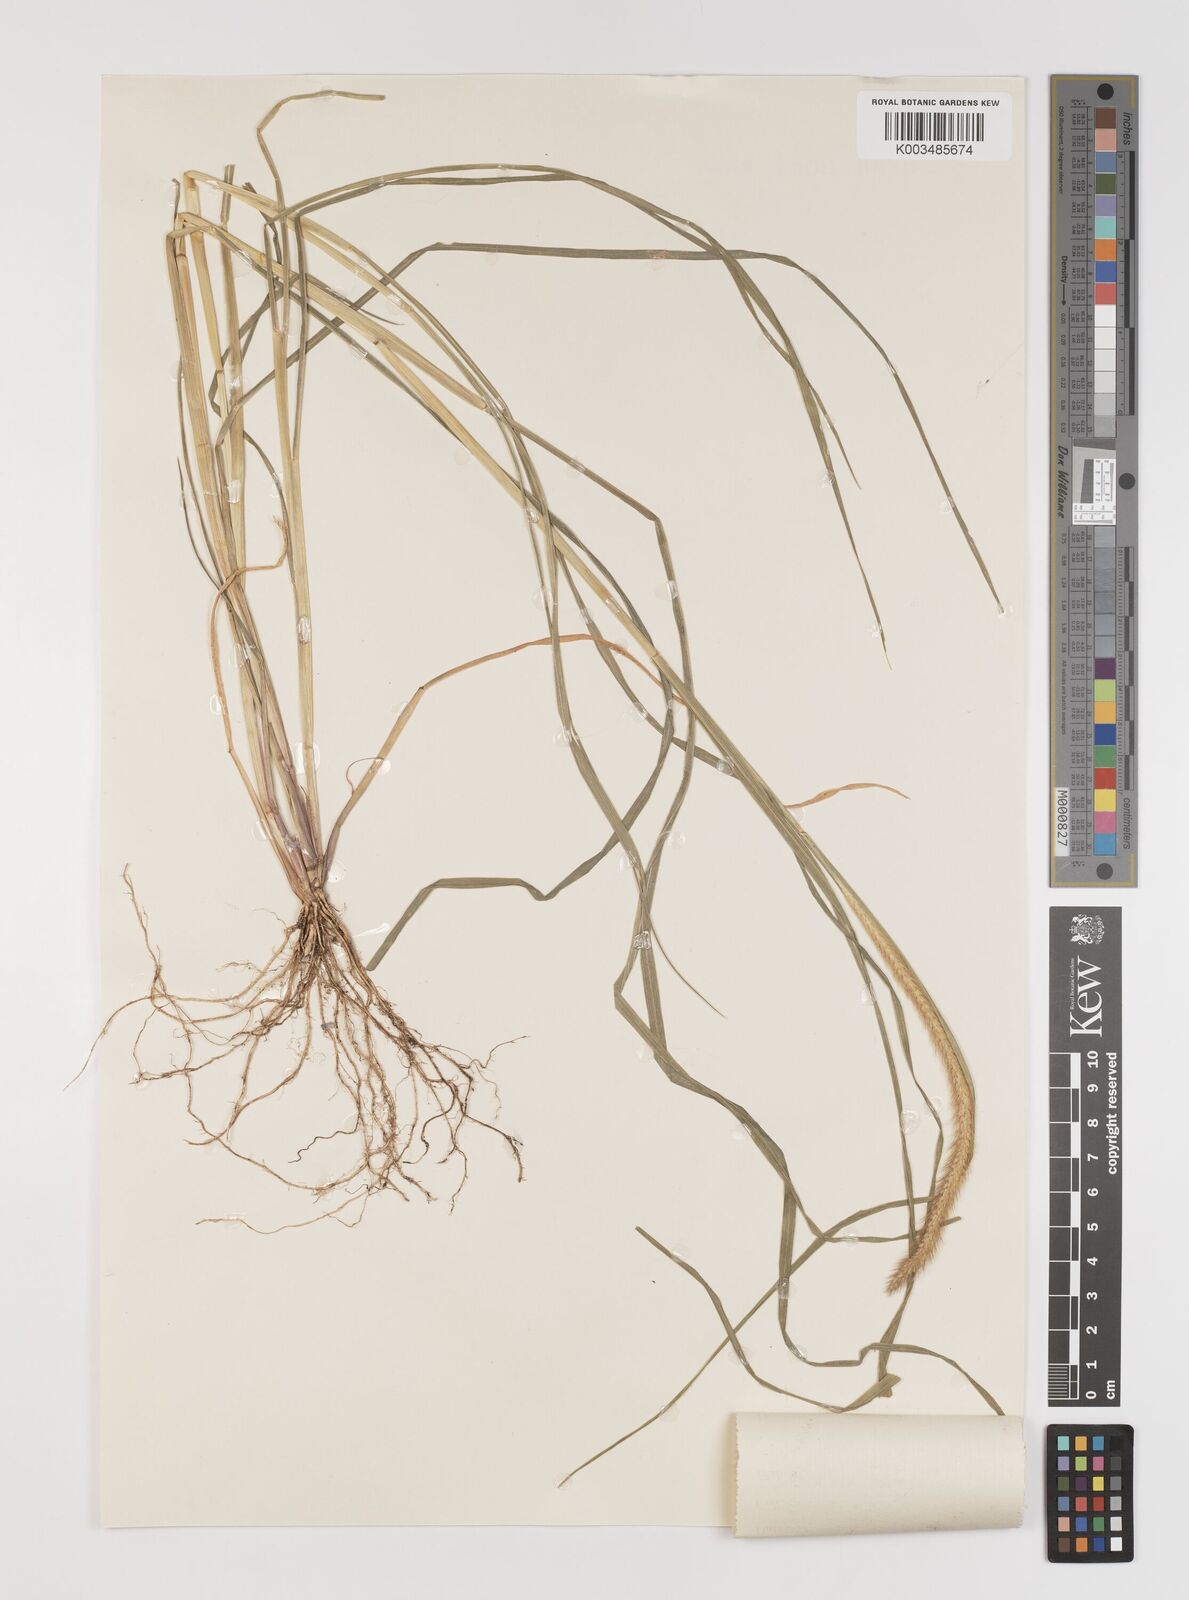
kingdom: Plantae
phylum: Tracheophyta
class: Liliopsida
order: Poales
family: Poaceae
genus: Setaria
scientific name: Setaria pumila
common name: Yellow bristle-grass
